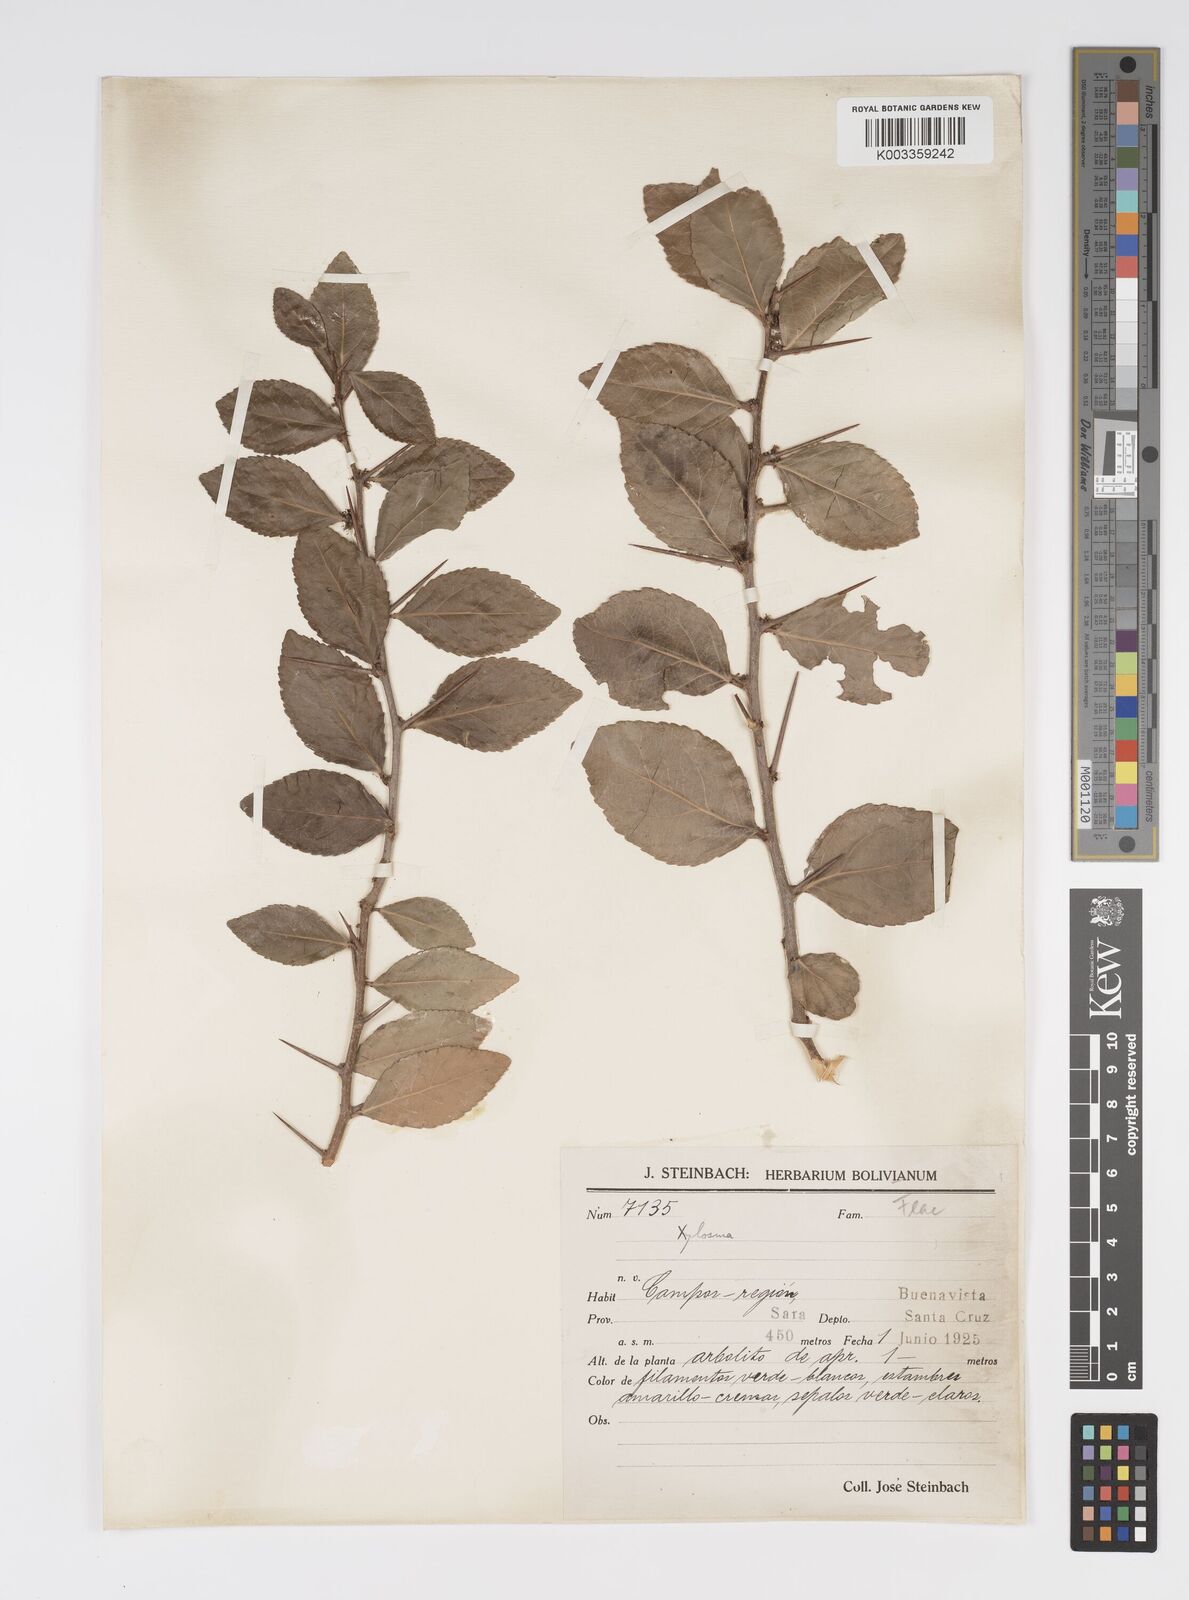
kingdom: Plantae
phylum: Tracheophyta
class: Magnoliopsida
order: Malpighiales
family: Salicaceae
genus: Xylosma
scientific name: Xylosma
